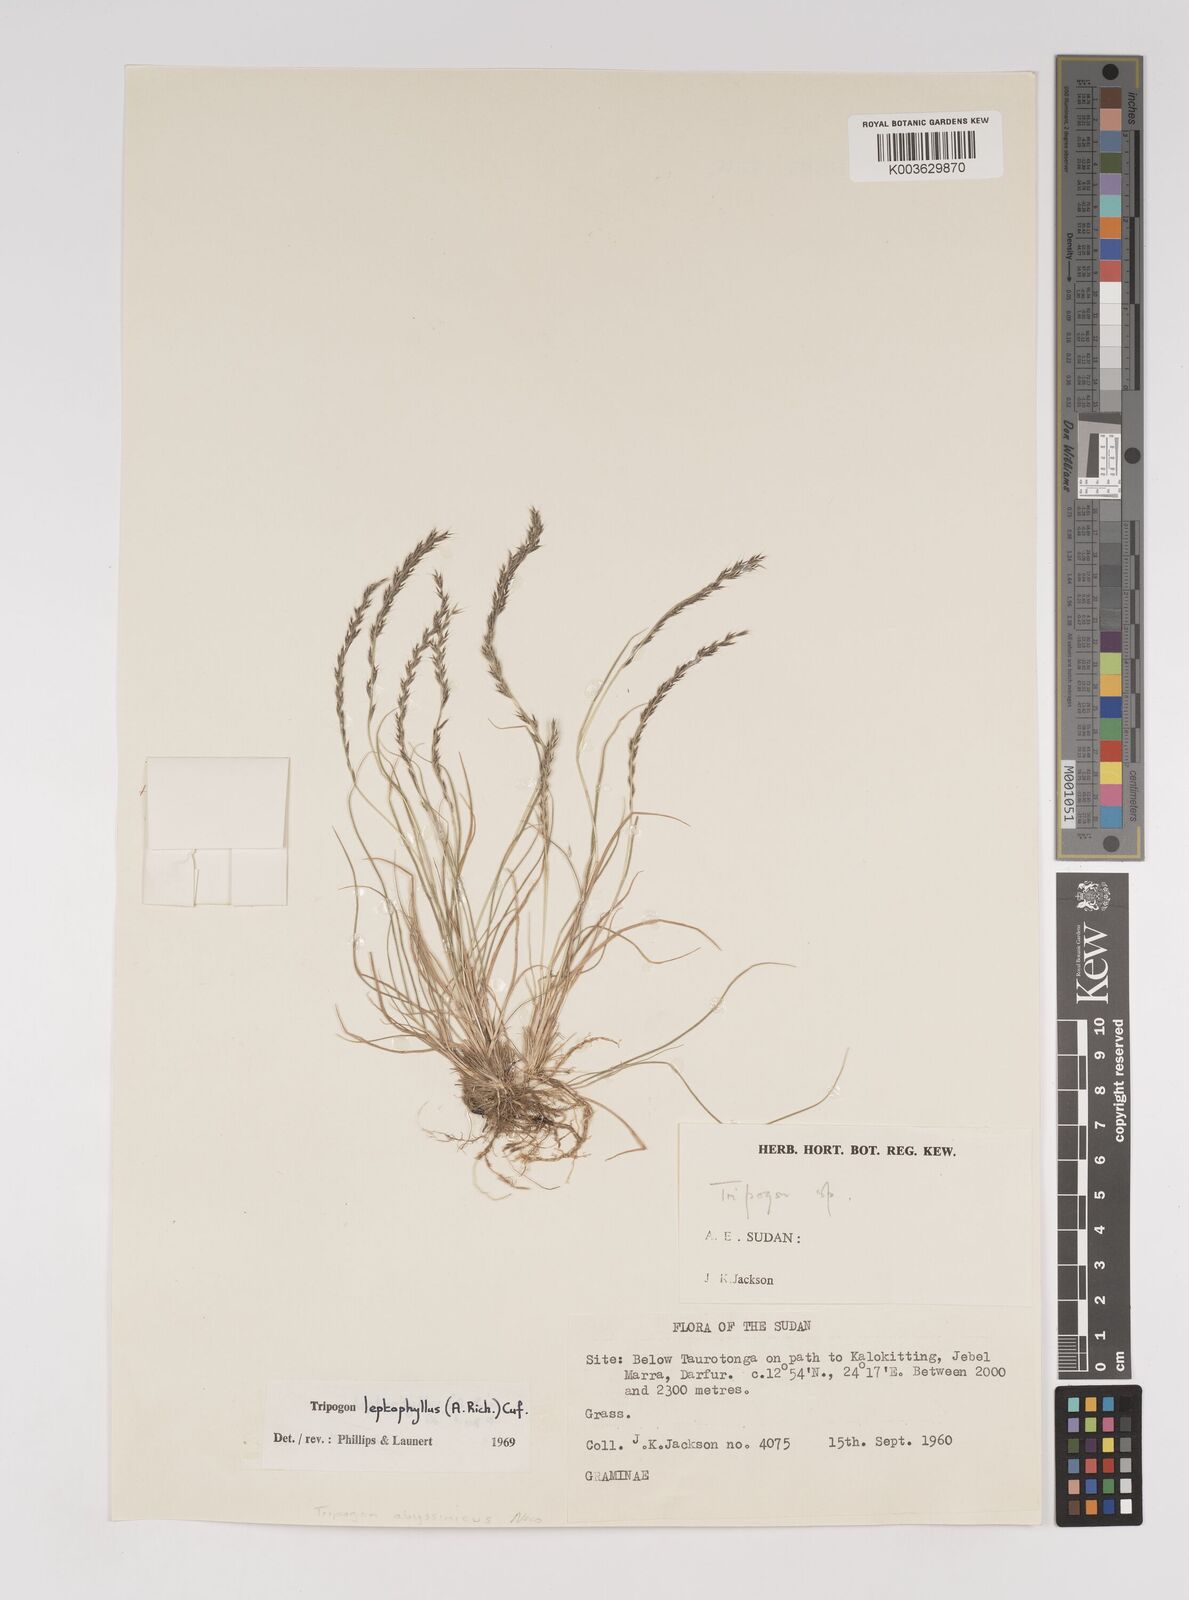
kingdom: Plantae
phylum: Tracheophyta
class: Liliopsida
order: Poales
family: Poaceae
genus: Tripogon
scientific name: Tripogon leptophyllus
